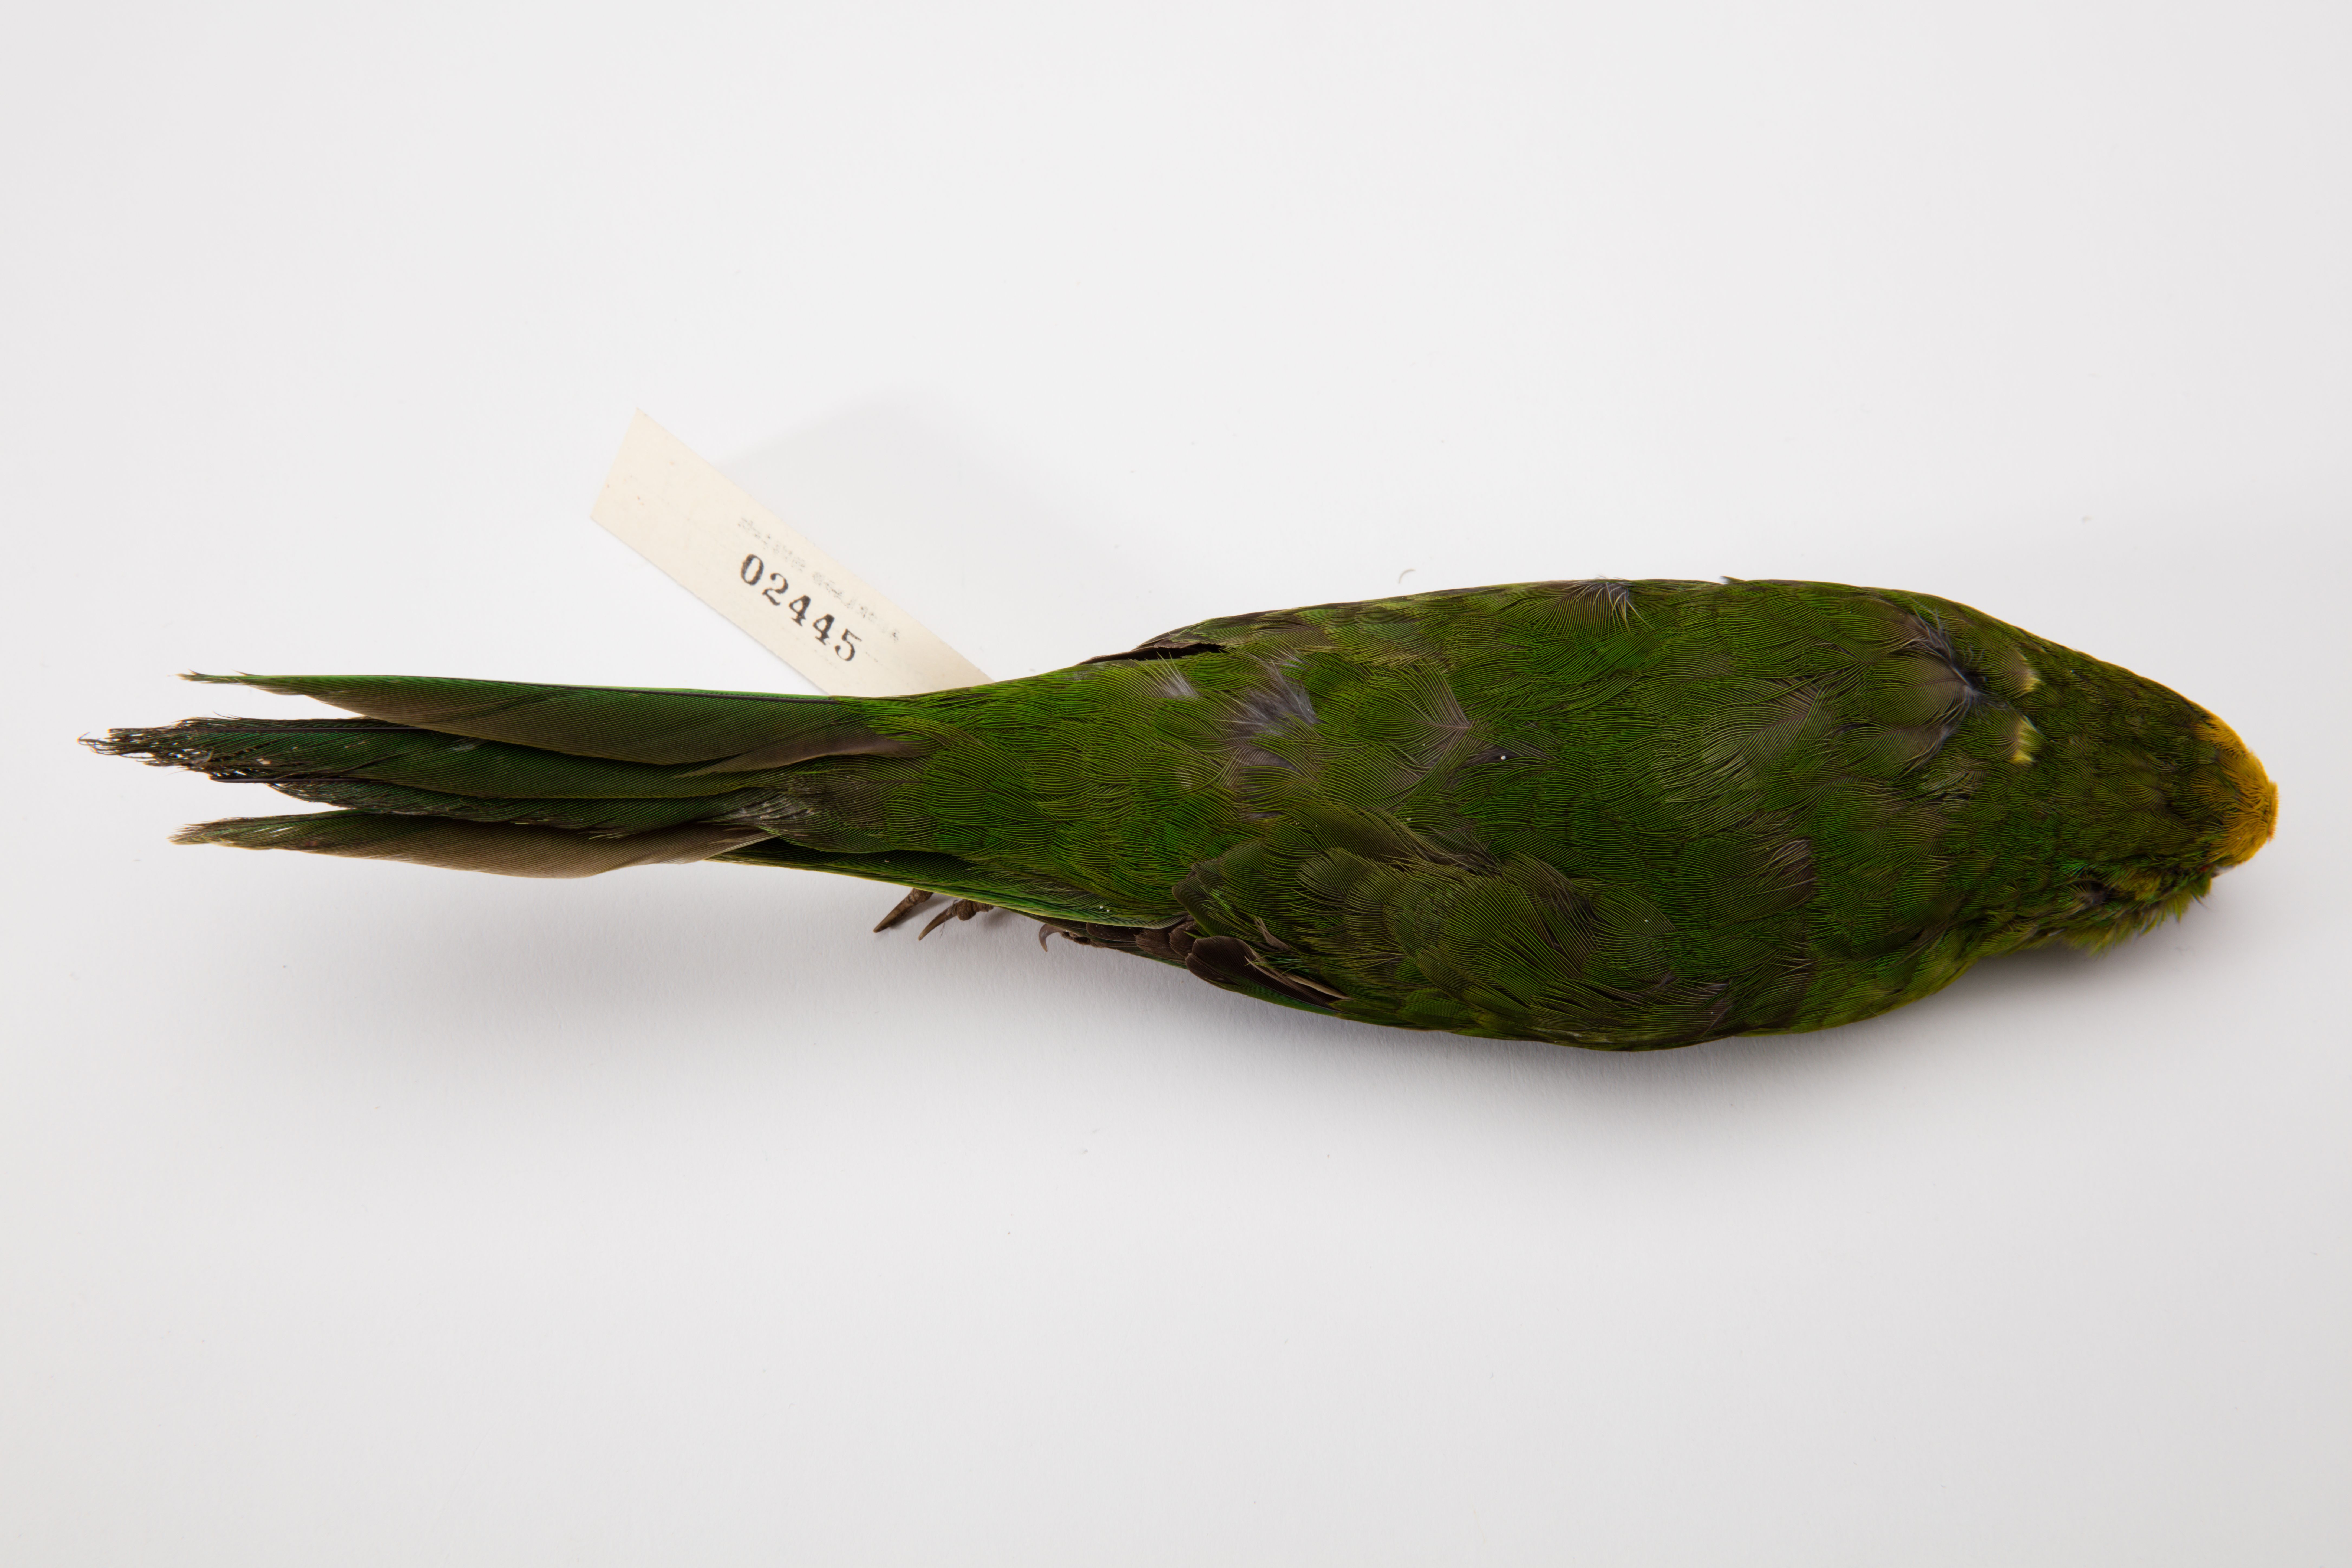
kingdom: Animalia
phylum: Chordata
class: Aves
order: Psittaciformes
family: Psittacidae
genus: Cyanoramphus
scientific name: Cyanoramphus auriceps
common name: Yellow-crowned parakeet
